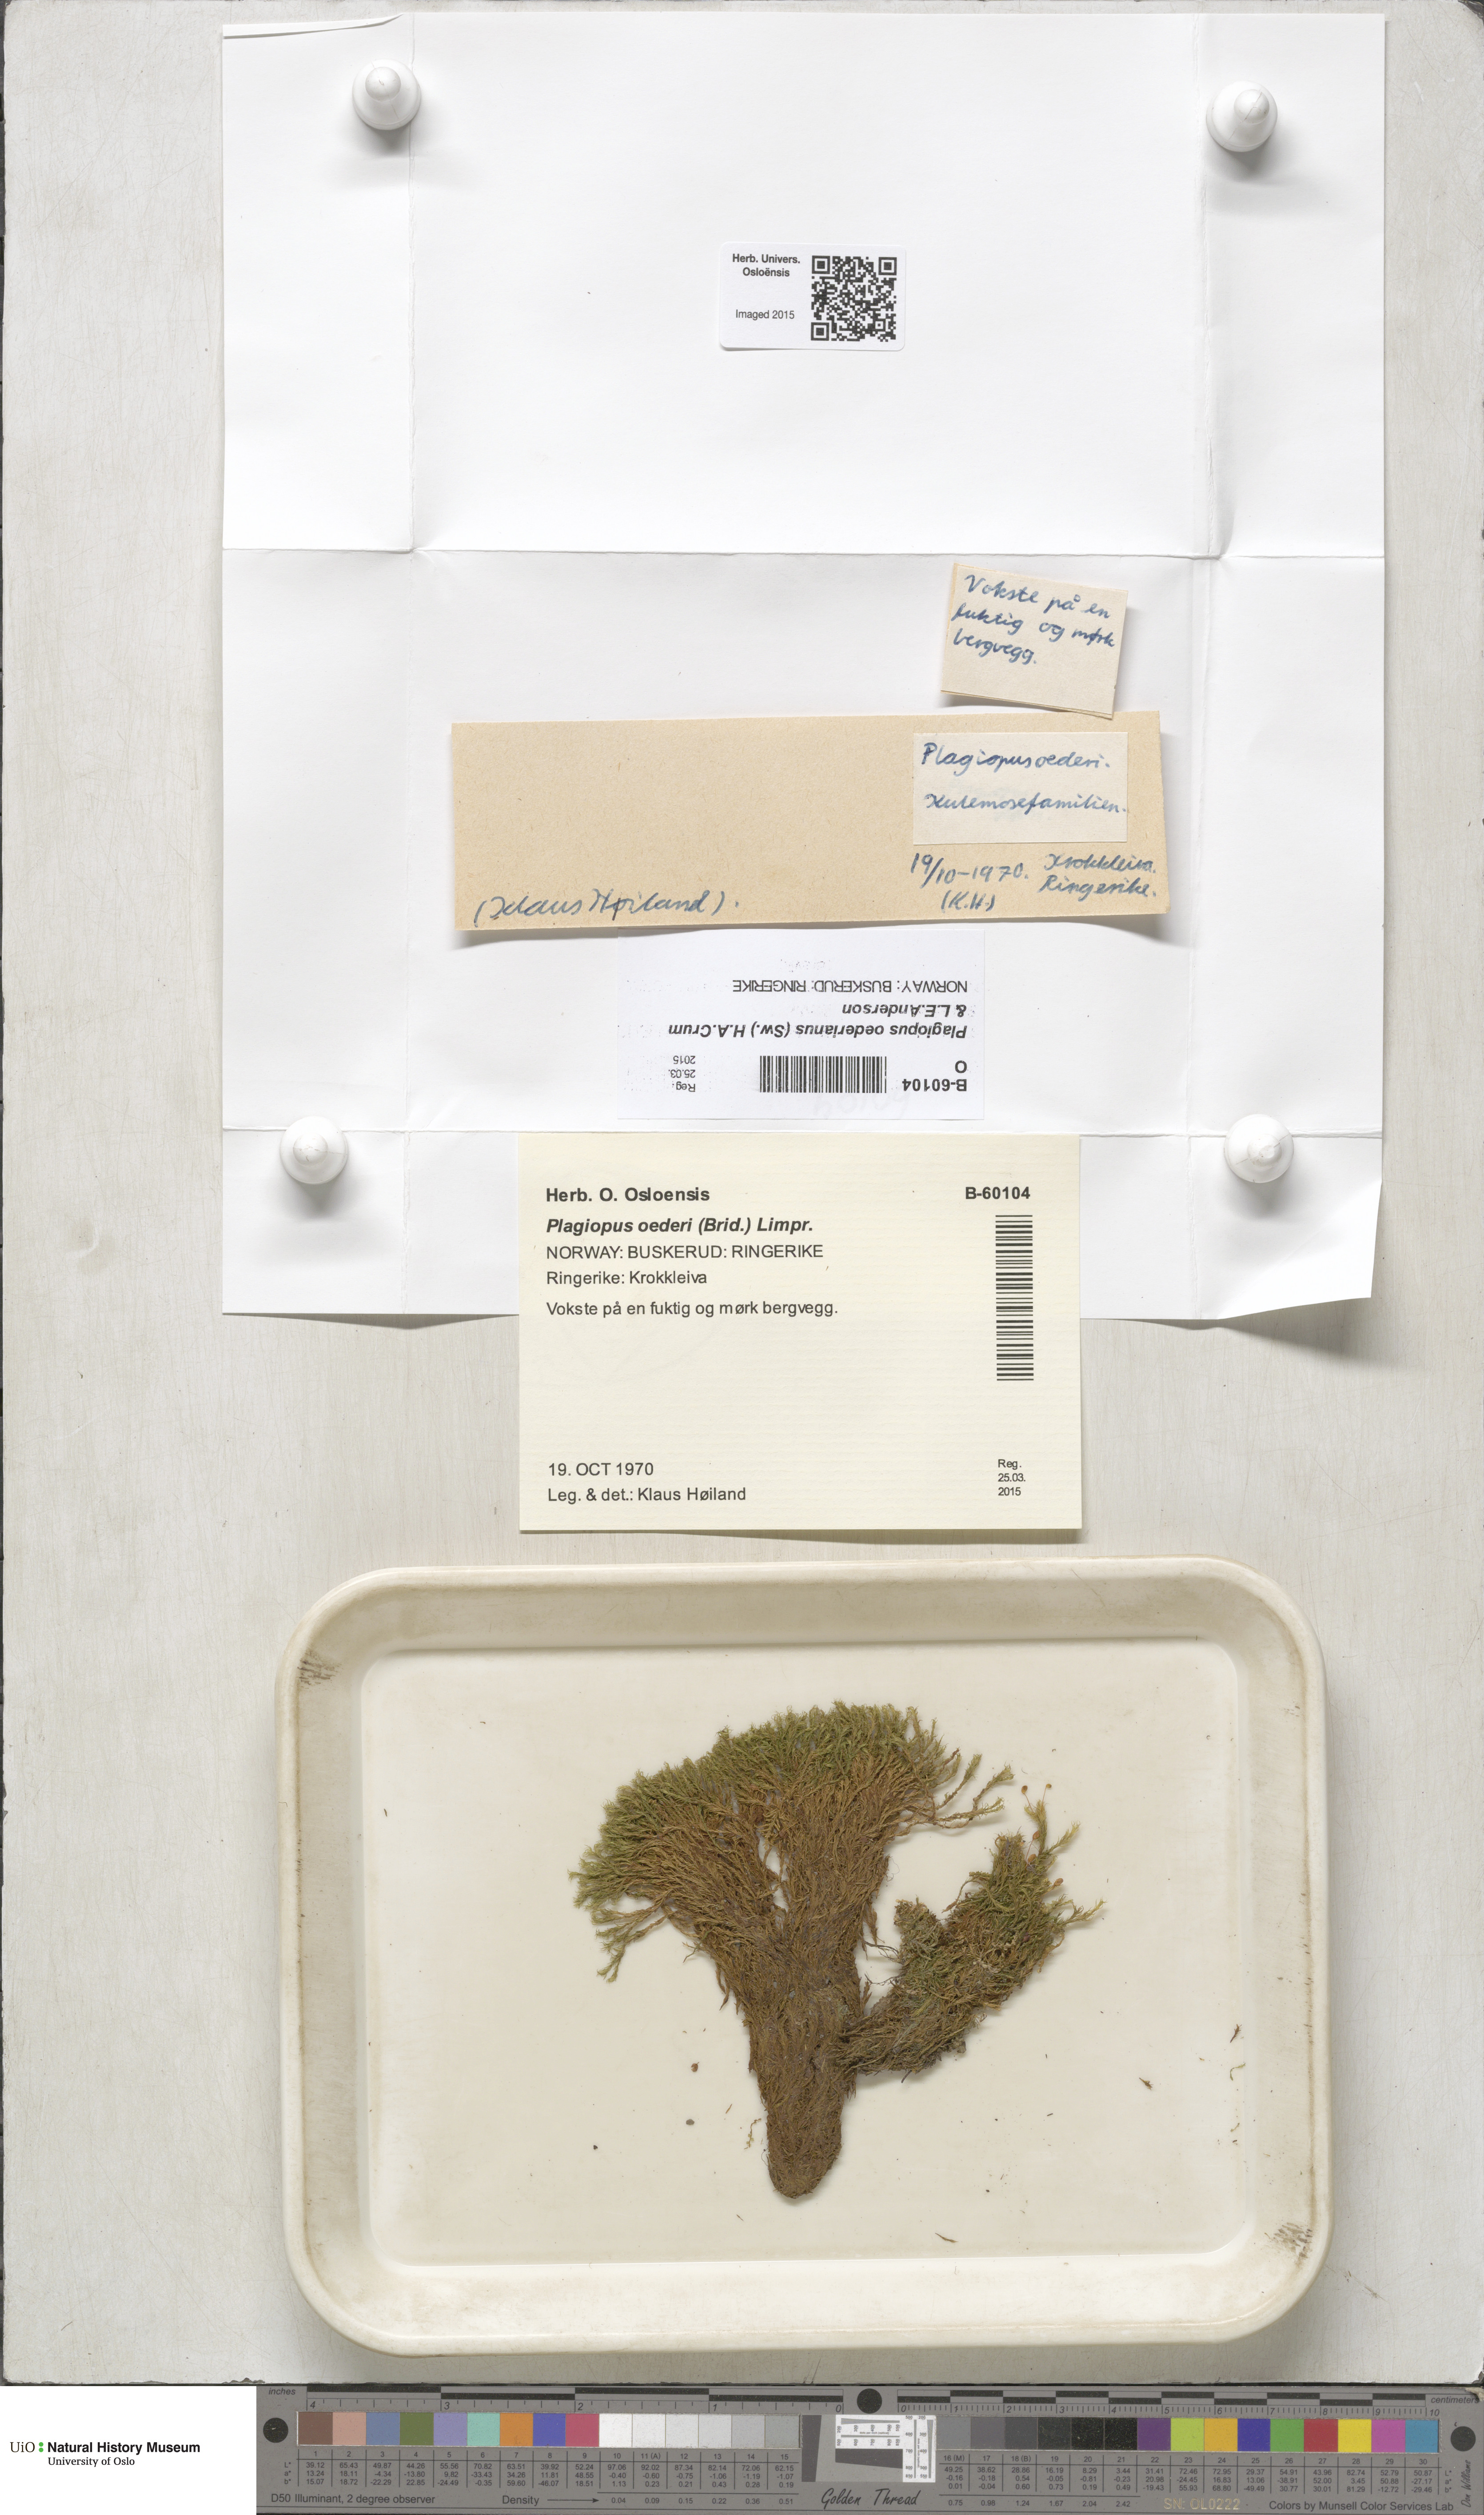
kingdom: Plantae
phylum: Bryophyta
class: Bryopsida
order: Bartramiales
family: Bartramiaceae
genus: Plagiopus
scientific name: Plagiopus oederianus
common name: Oeder's apple moss
